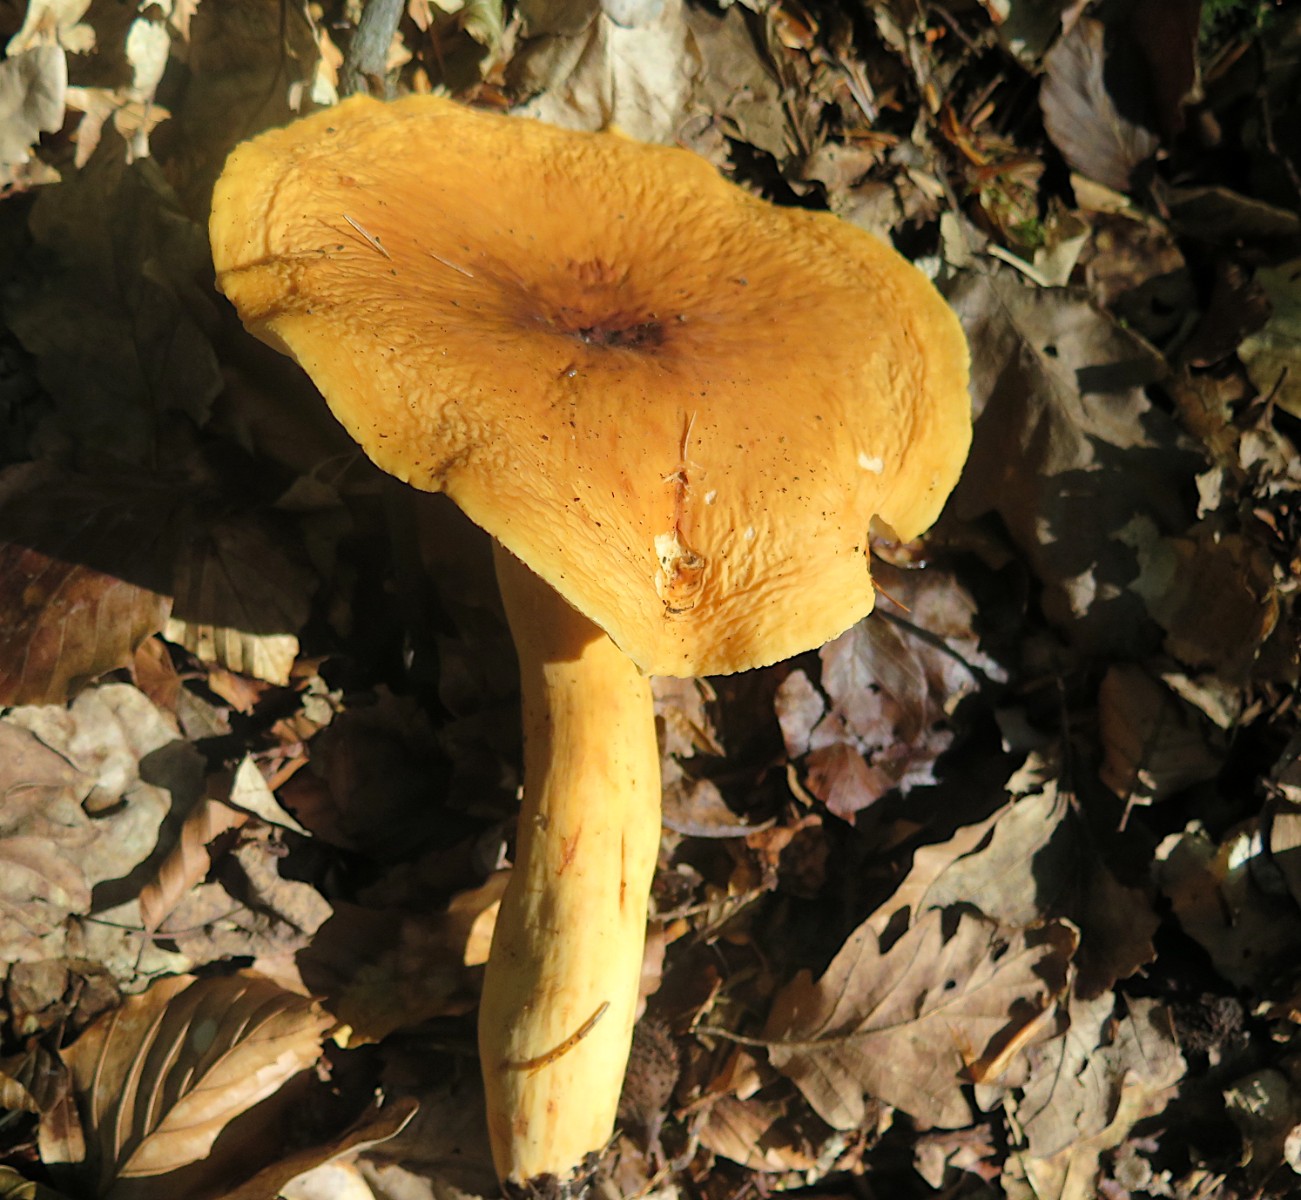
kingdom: Fungi
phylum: Basidiomycota
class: Agaricomycetes
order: Russulales
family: Russulaceae
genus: Lactifluus
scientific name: Lactifluus volemus
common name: spiselig mælkehat
